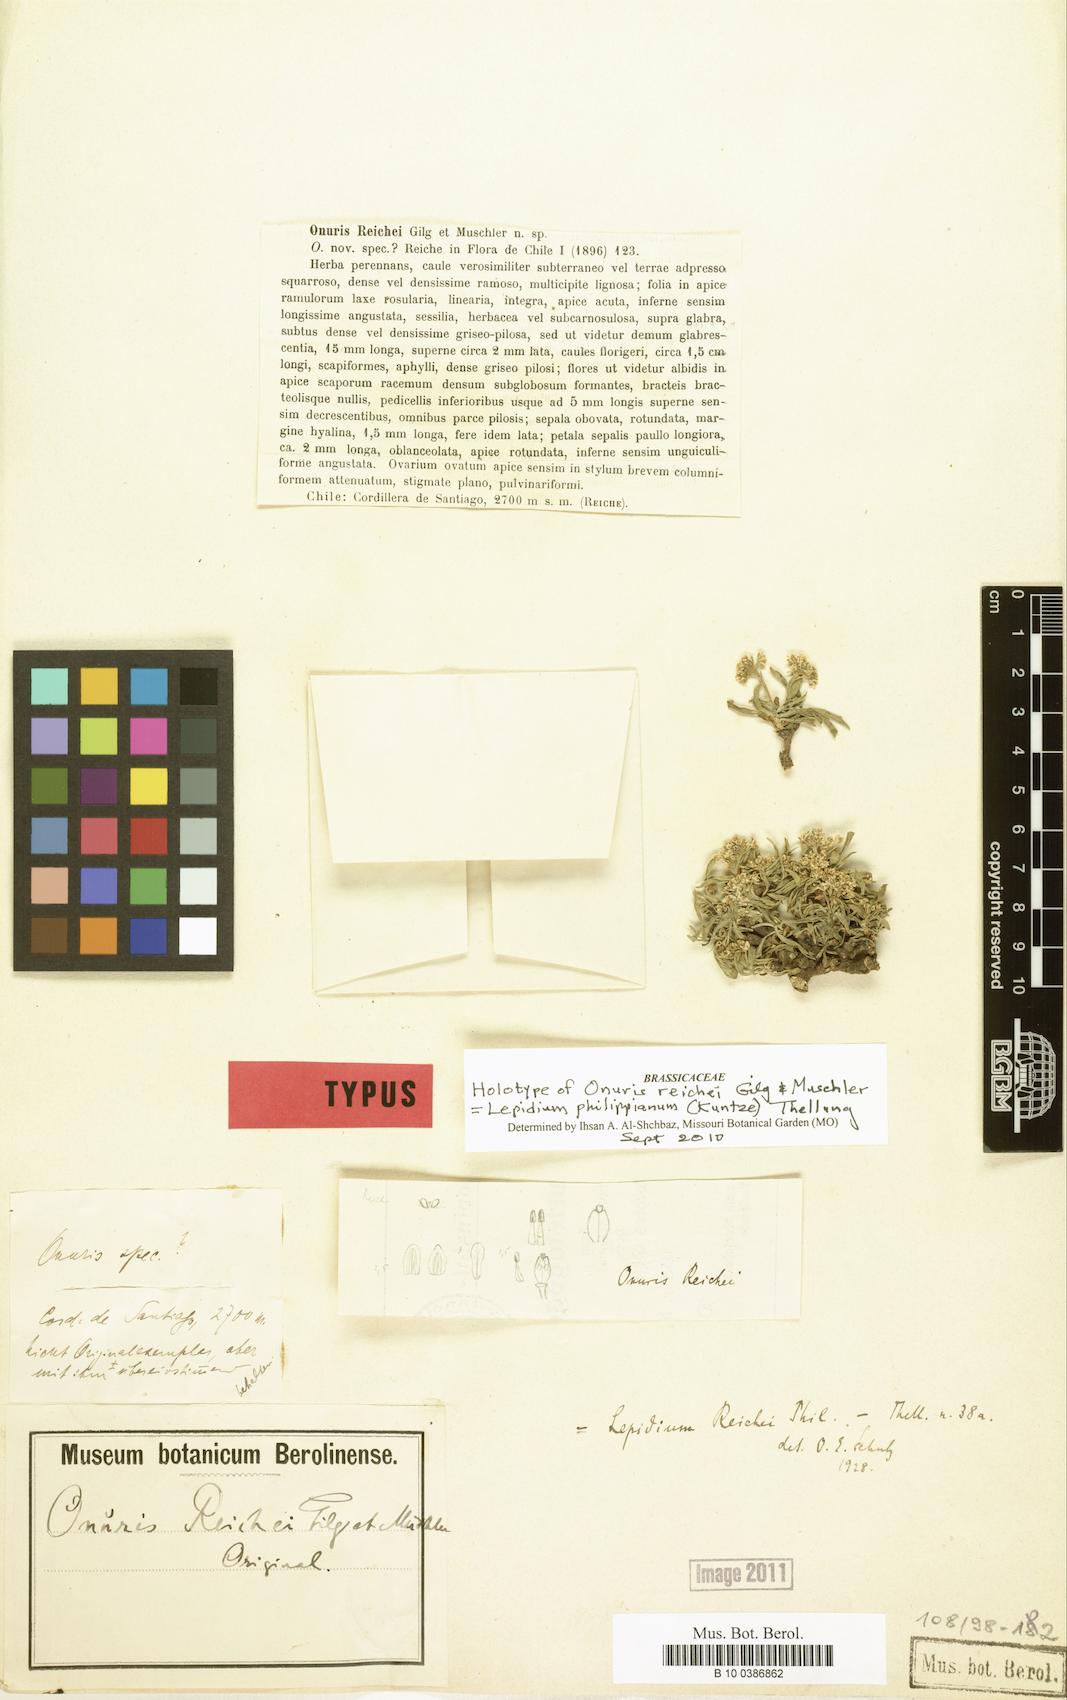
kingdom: Plantae
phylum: Tracheophyta
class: Magnoliopsida
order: Brassicales
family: Brassicaceae
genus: Lepidium
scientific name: Lepidium philippianum
